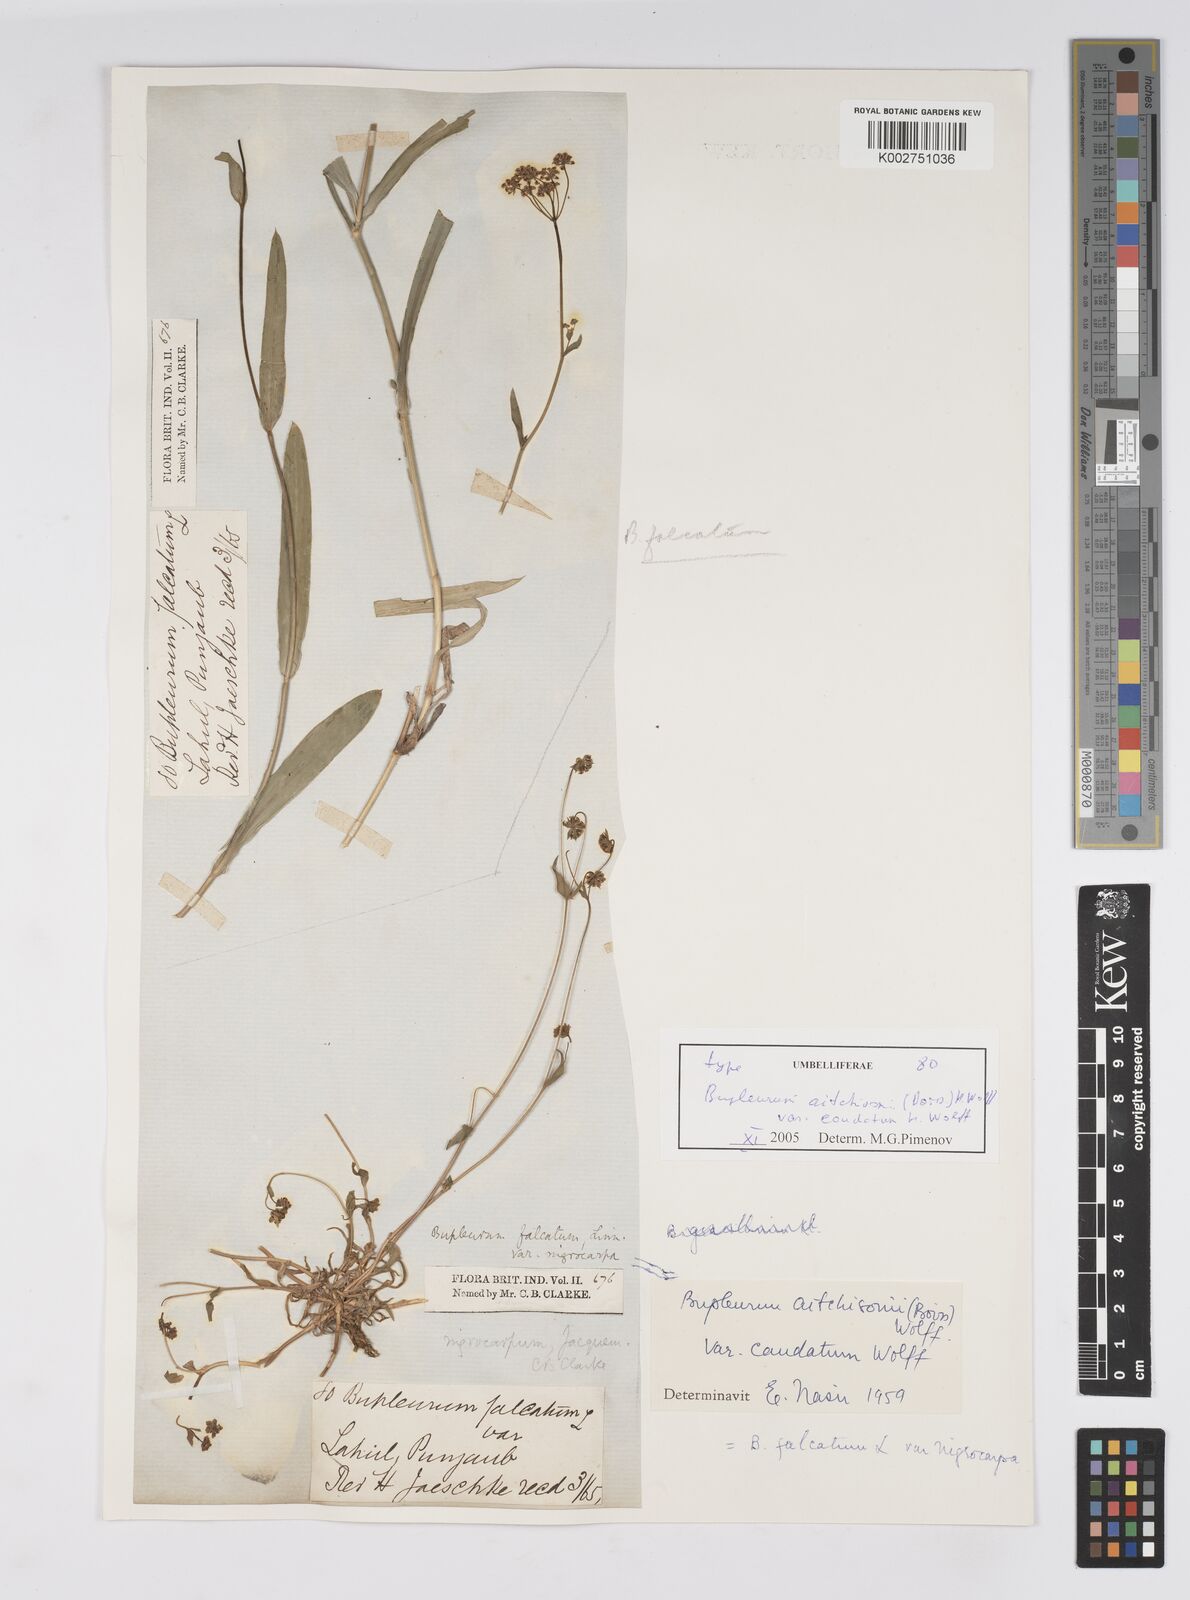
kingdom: Plantae
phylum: Tracheophyta
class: Magnoliopsida
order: Apiales
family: Apiaceae
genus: Bupleurum
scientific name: Bupleurum falcatum
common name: Sickle-leaved hare's-ear
